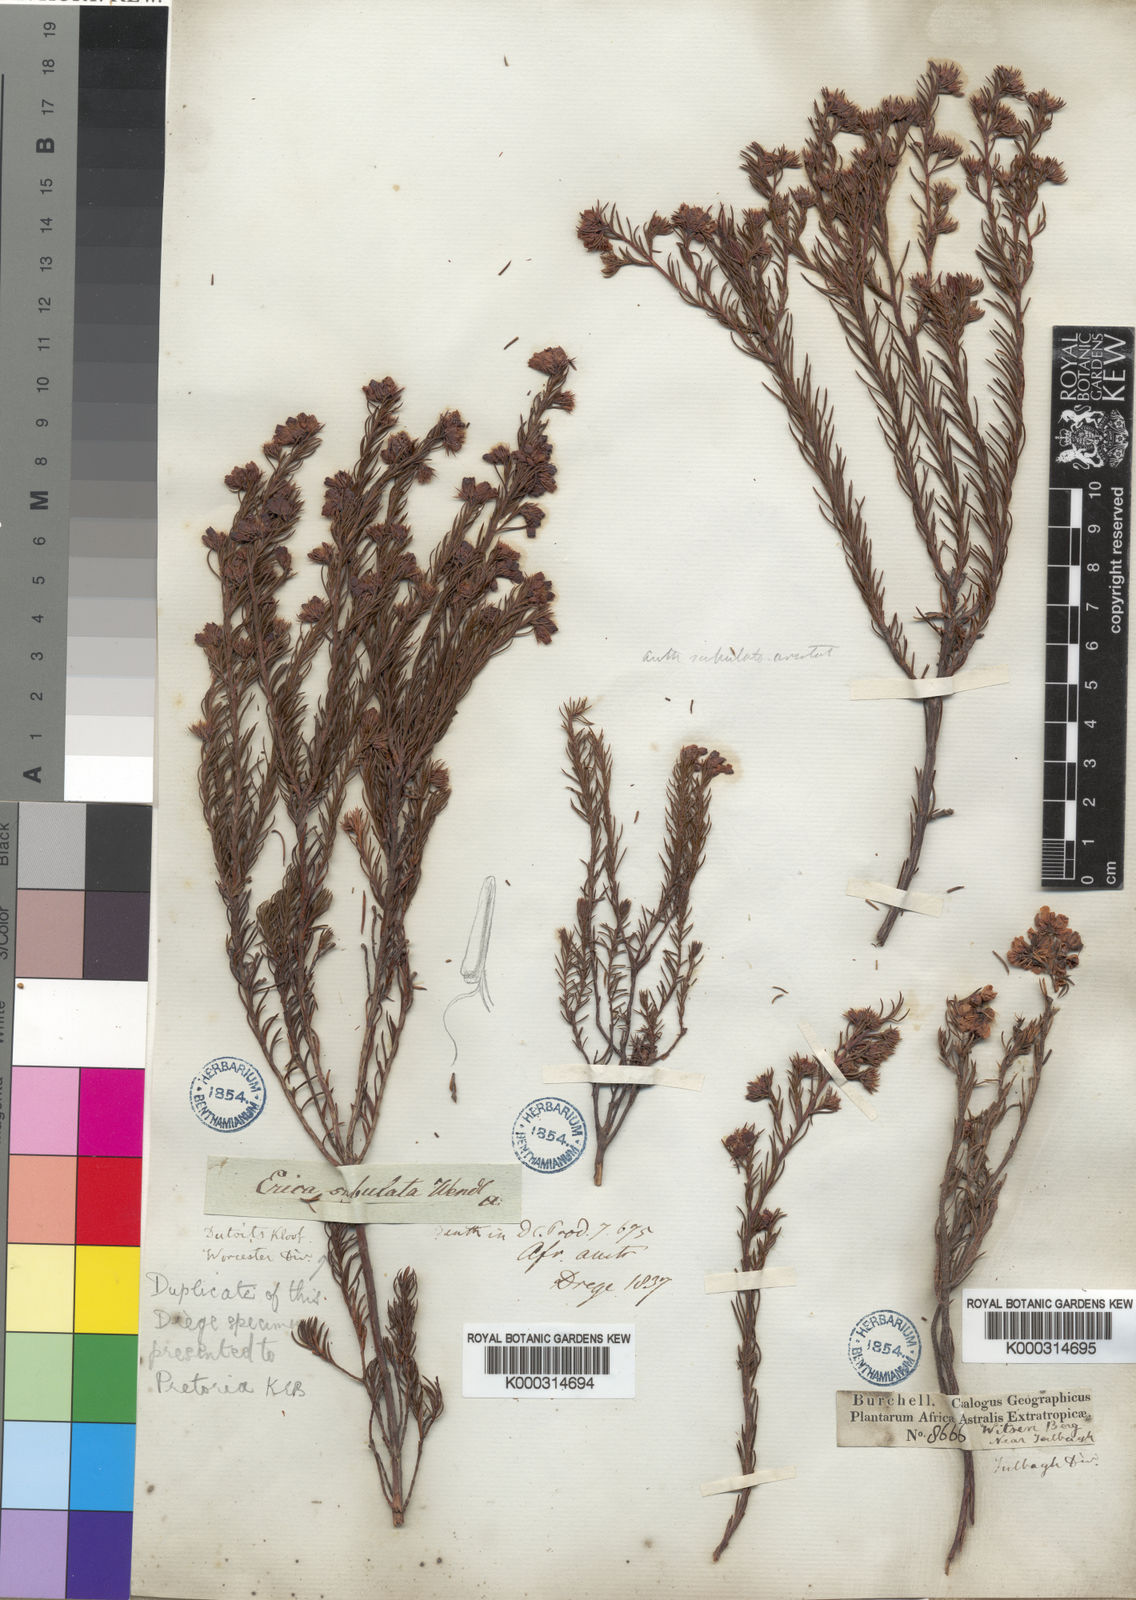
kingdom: Plantae
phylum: Tracheophyta
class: Magnoliopsida
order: Ericales
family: Ericaceae
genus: Erica
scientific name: Erica subulata
